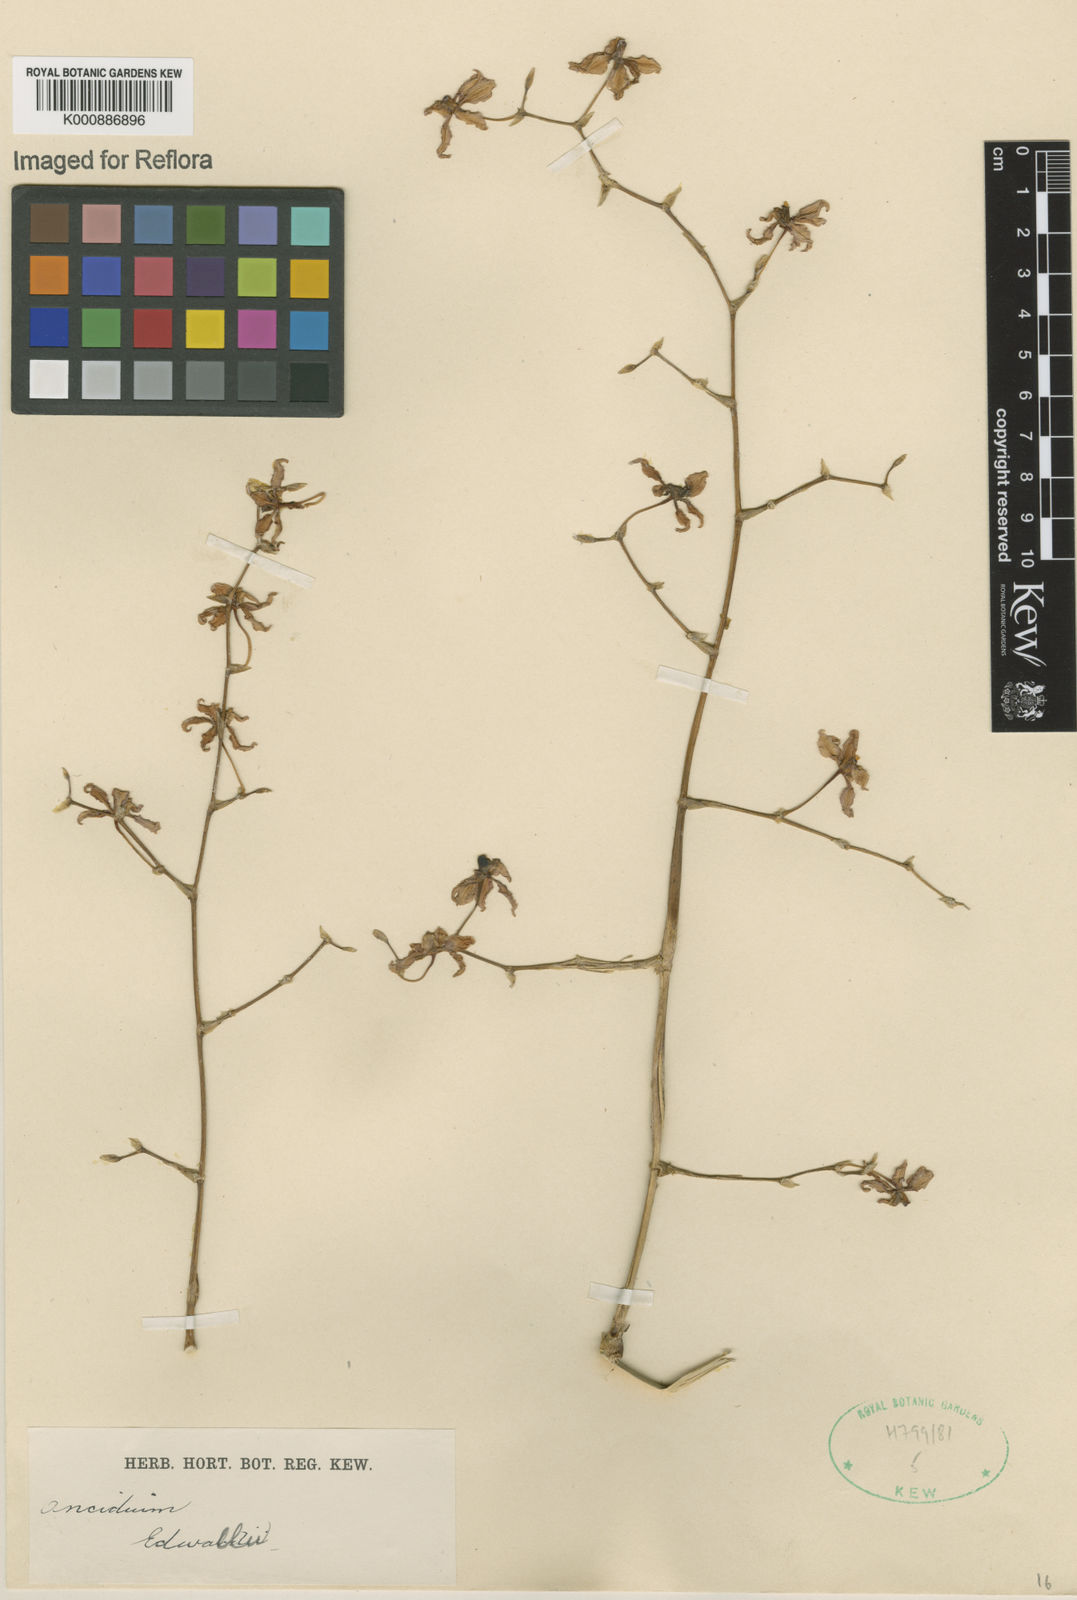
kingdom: Plantae
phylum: Tracheophyta
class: Liliopsida
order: Asparagales
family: Orchidaceae
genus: Oncidium
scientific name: Oncidium
